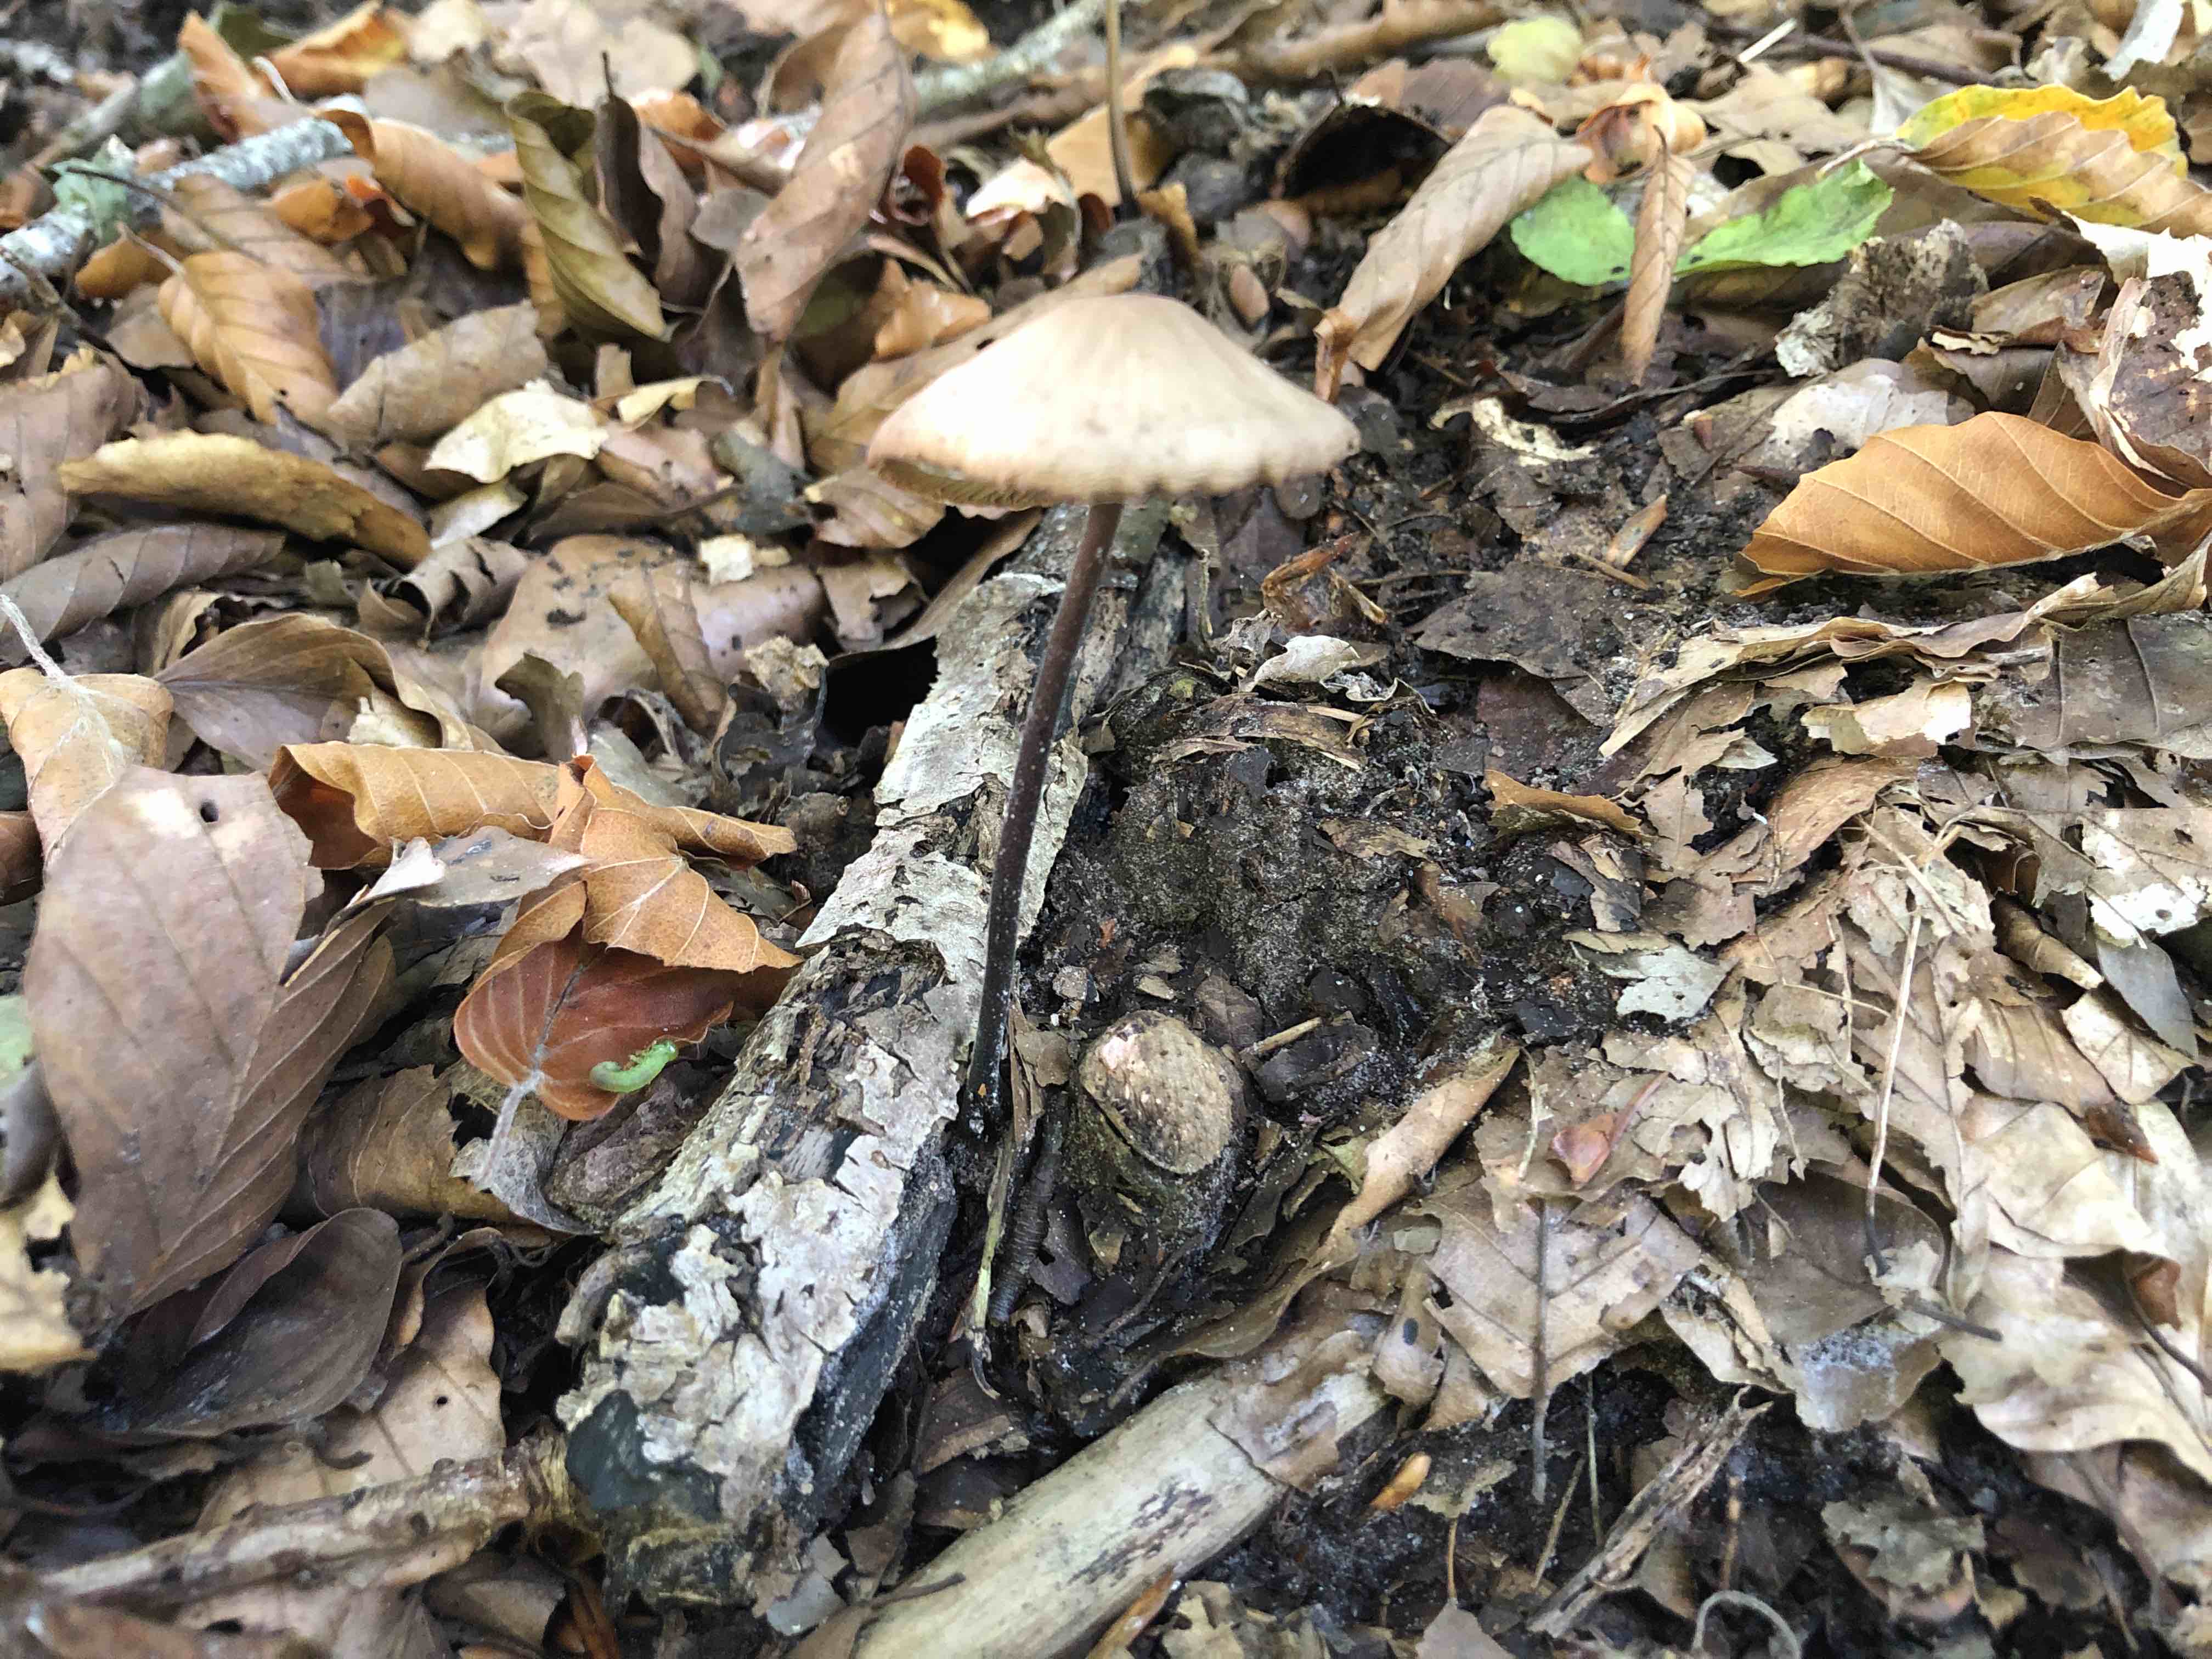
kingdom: Fungi
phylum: Basidiomycota
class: Agaricomycetes
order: Agaricales
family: Omphalotaceae
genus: Mycetinis
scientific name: Mycetinis alliaceus
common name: stor løghat
